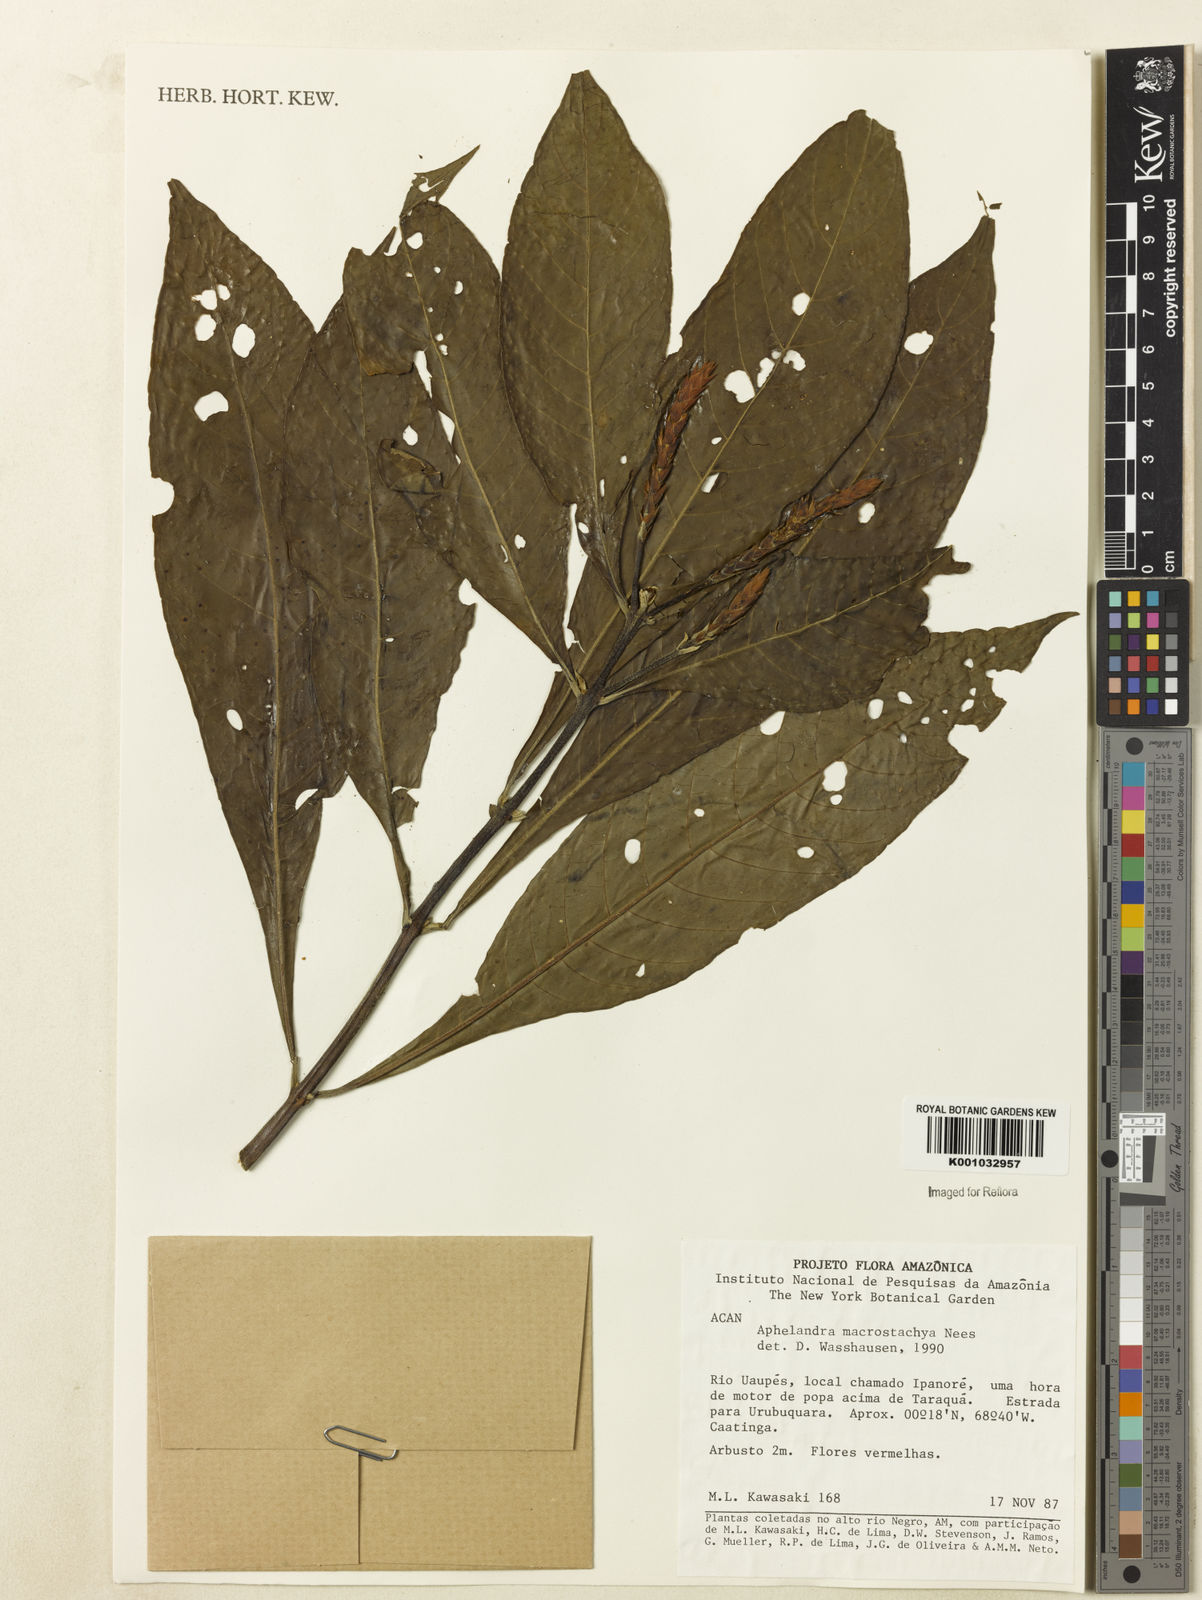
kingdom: Plantae
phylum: Tracheophyta
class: Magnoliopsida
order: Lamiales
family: Acanthaceae
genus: Aphelandra
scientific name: Aphelandra macrostachya
